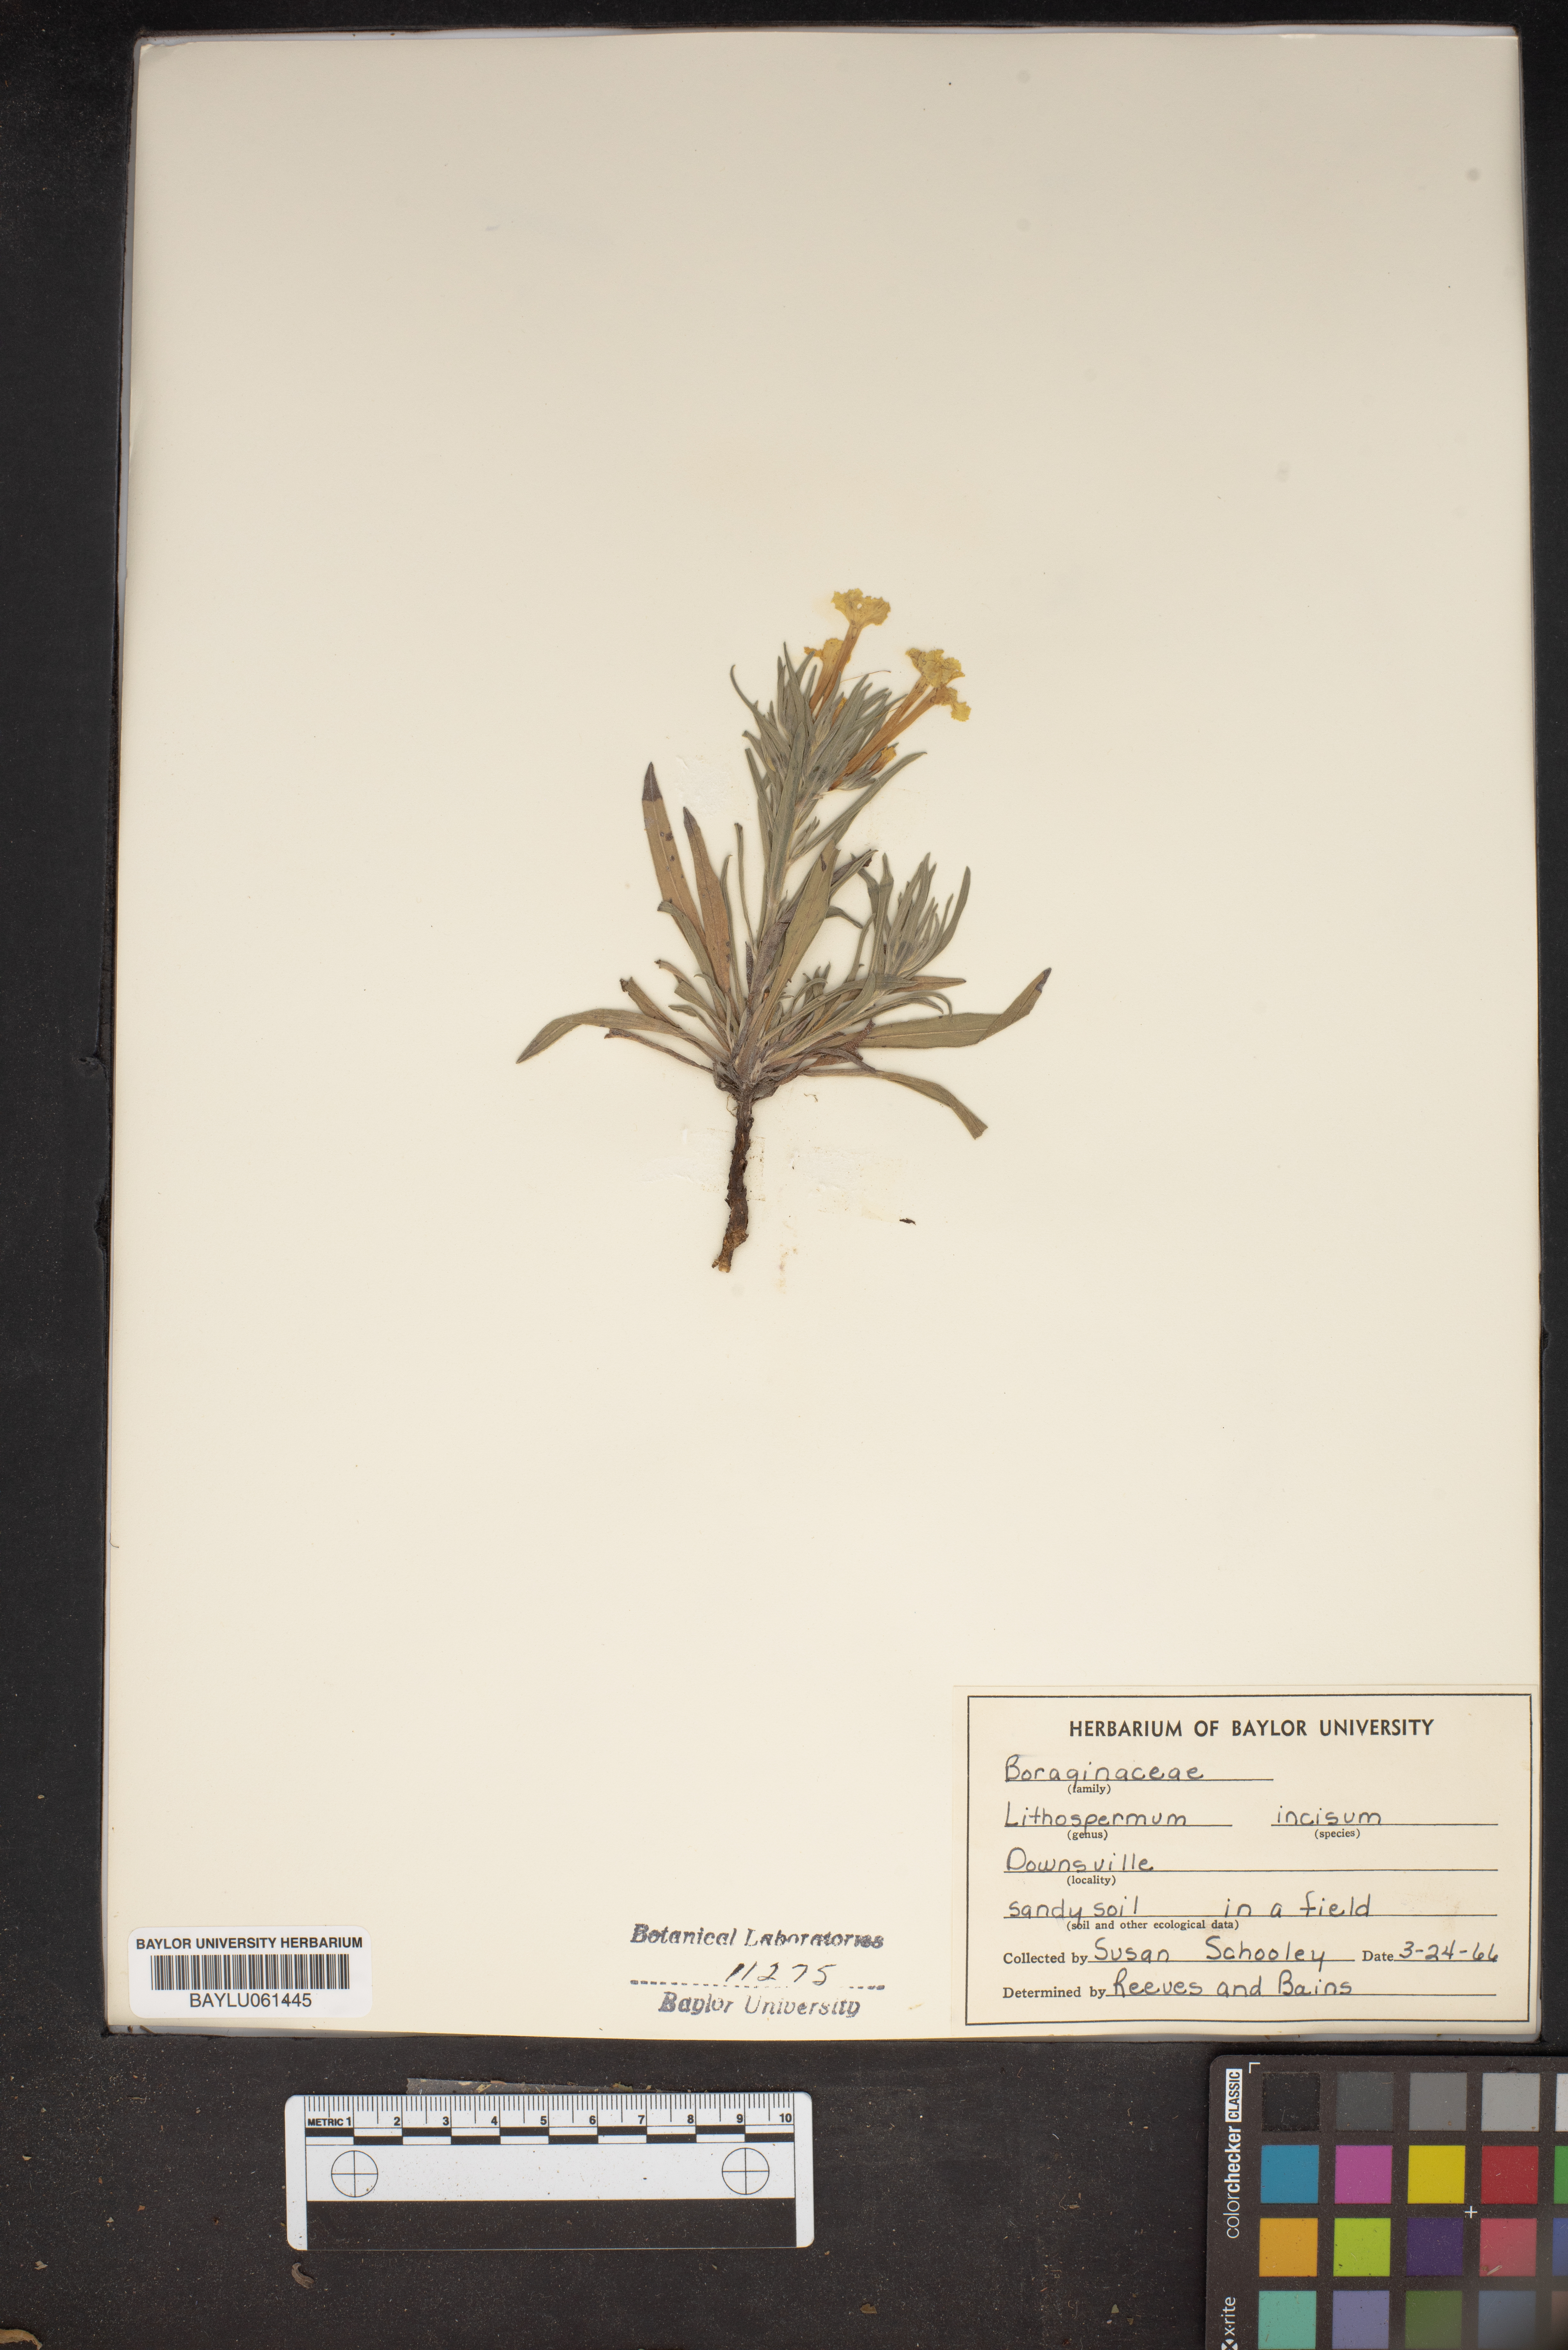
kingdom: Plantae
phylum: Tracheophyta
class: Magnoliopsida
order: Boraginales
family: Boraginaceae
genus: Lithospermum
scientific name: Lithospermum incisum
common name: Fringed gromwell
